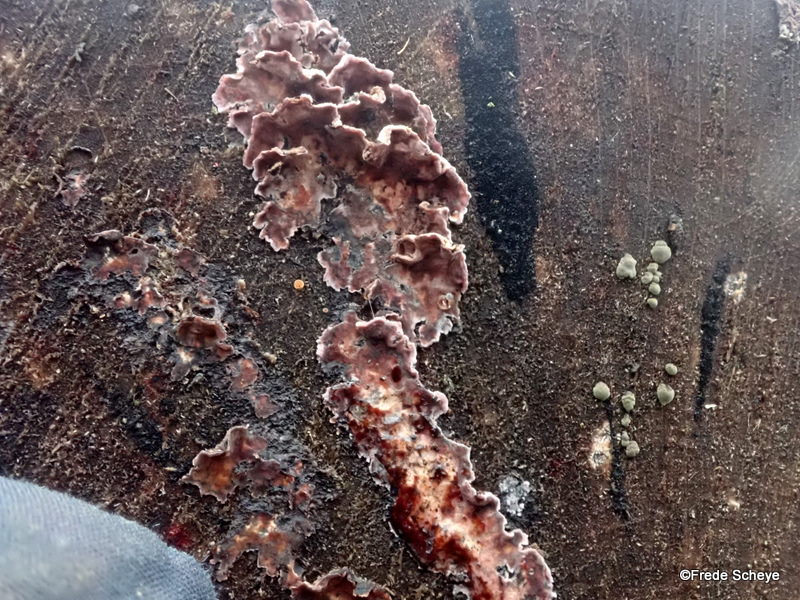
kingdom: Fungi
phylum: Basidiomycota
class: Agaricomycetes
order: Agaricales
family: Cyphellaceae
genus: Chondrostereum
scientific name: Chondrostereum purpureum
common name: purpurlædersvamp
